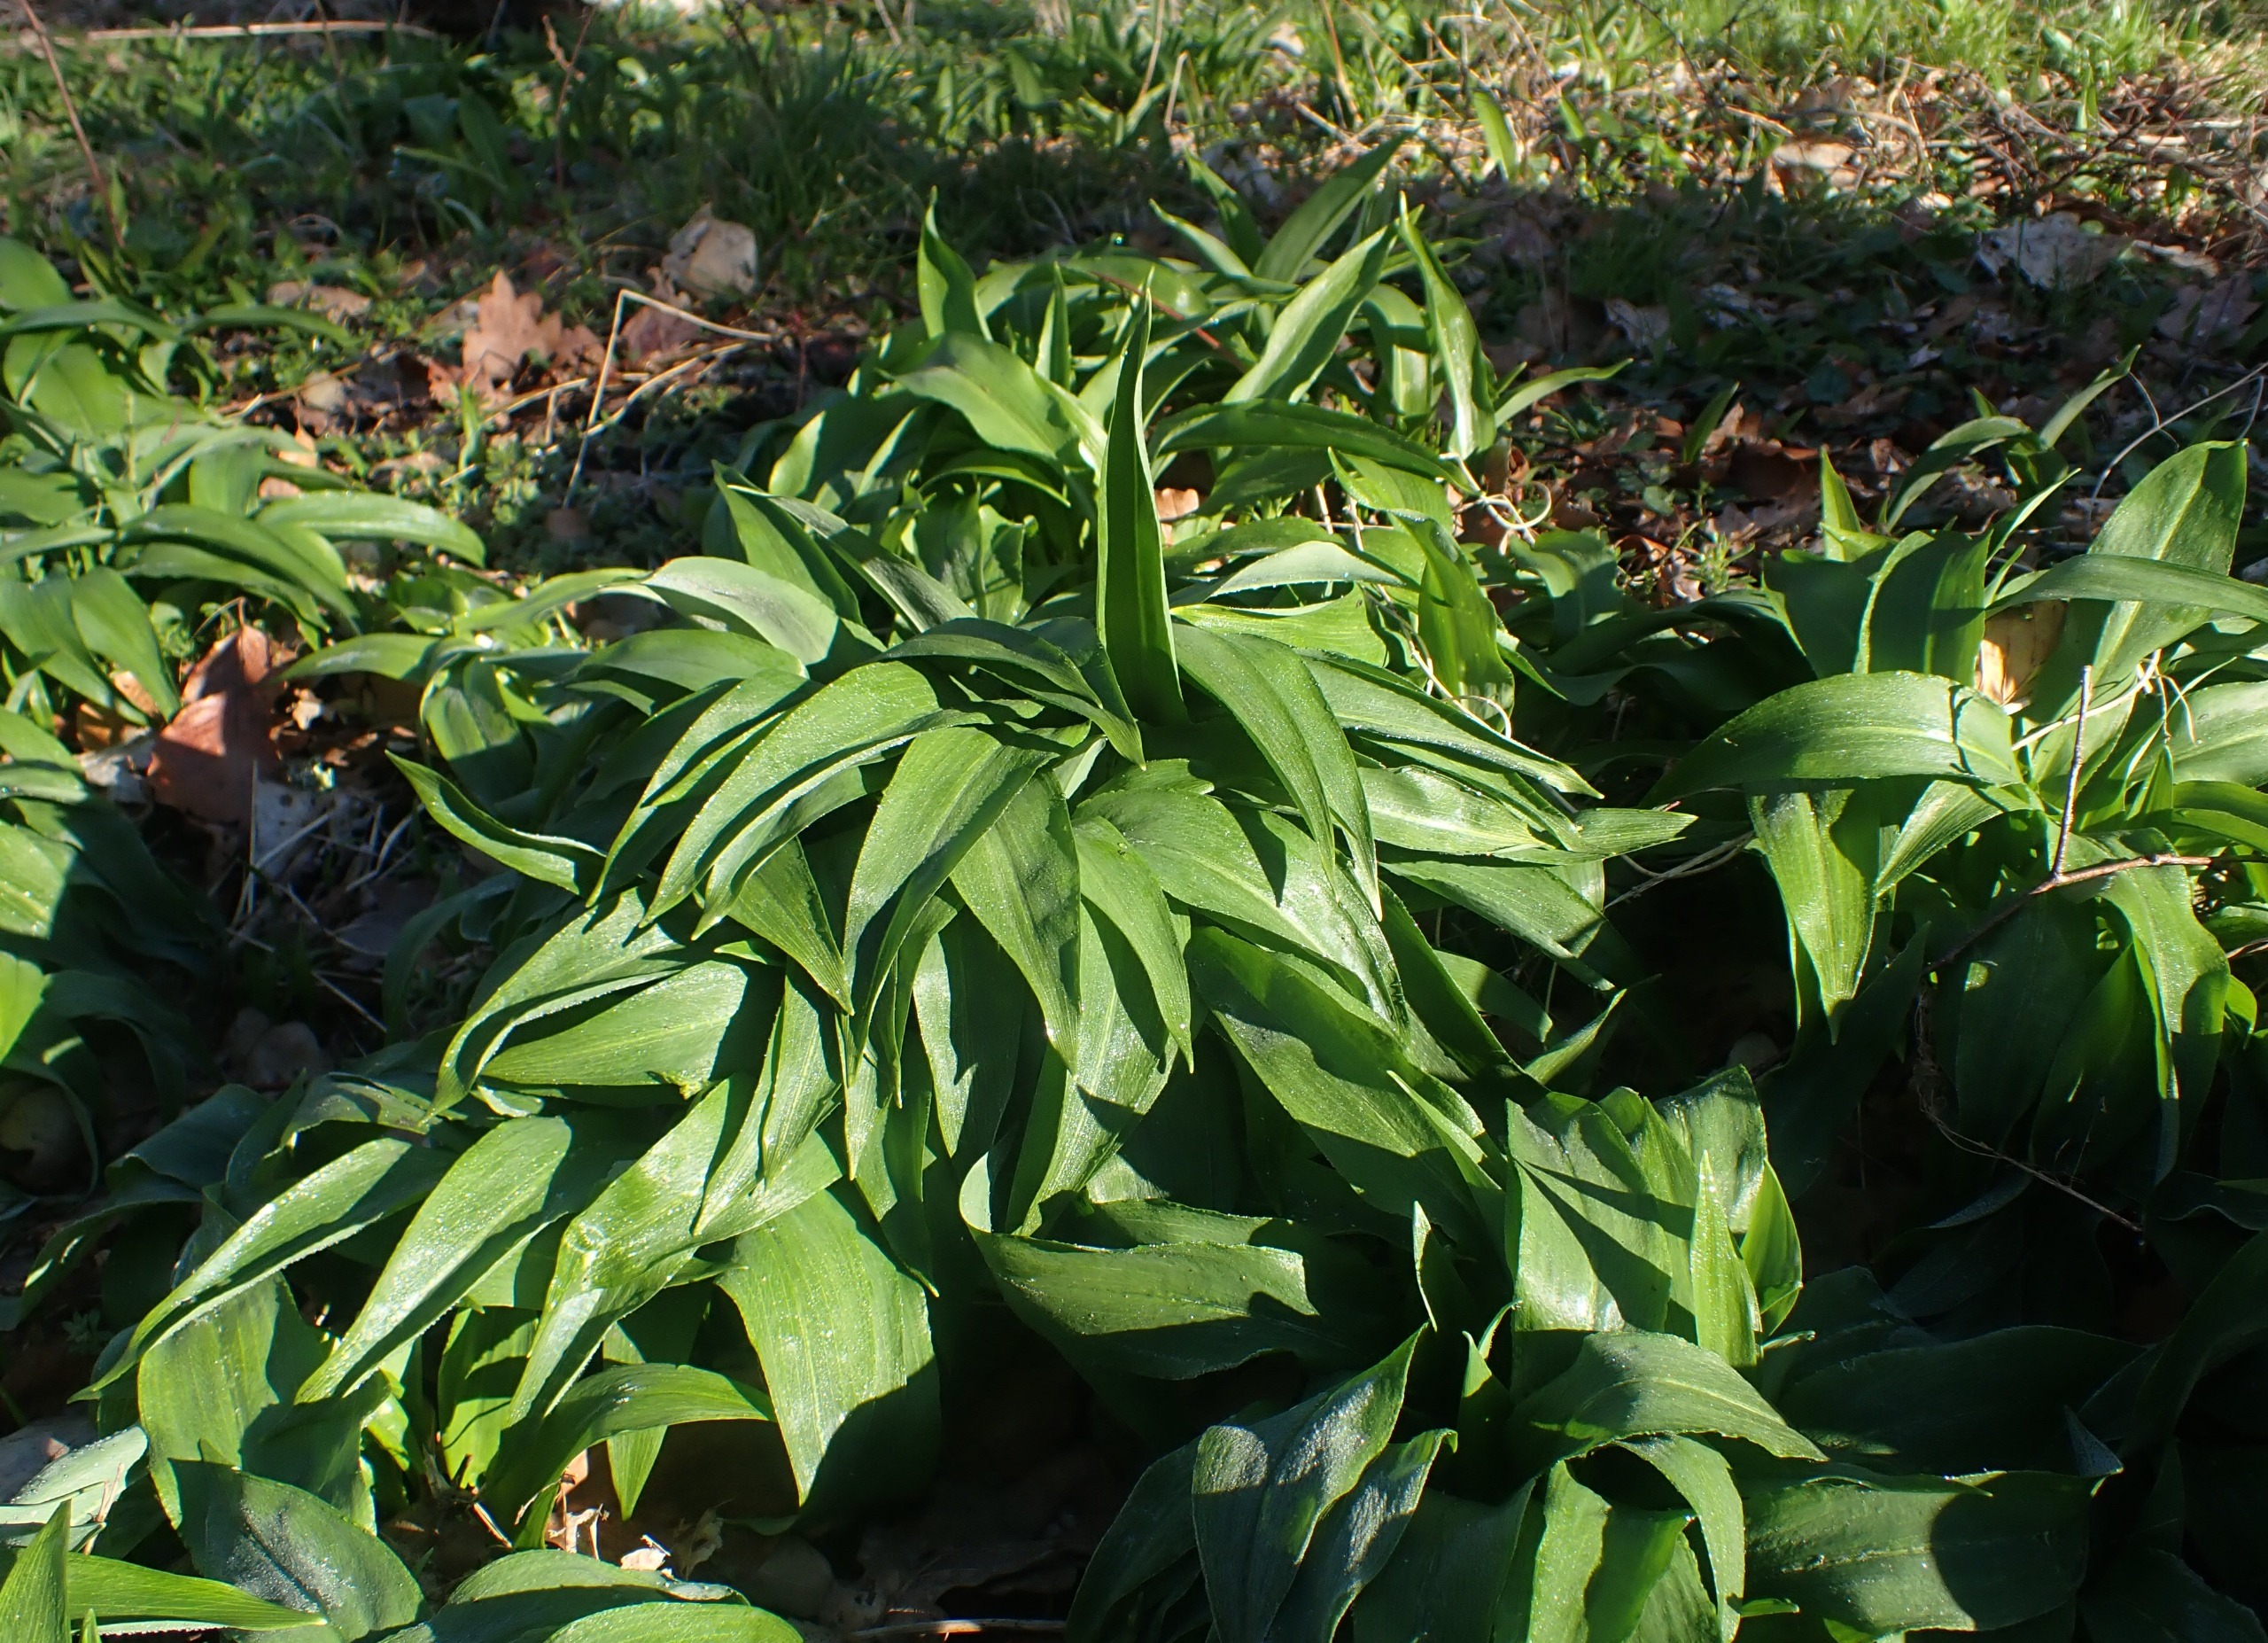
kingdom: Plantae
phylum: Tracheophyta
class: Liliopsida
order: Asparagales
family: Amaryllidaceae
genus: Allium
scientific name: Allium ursinum
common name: Rams-løg
